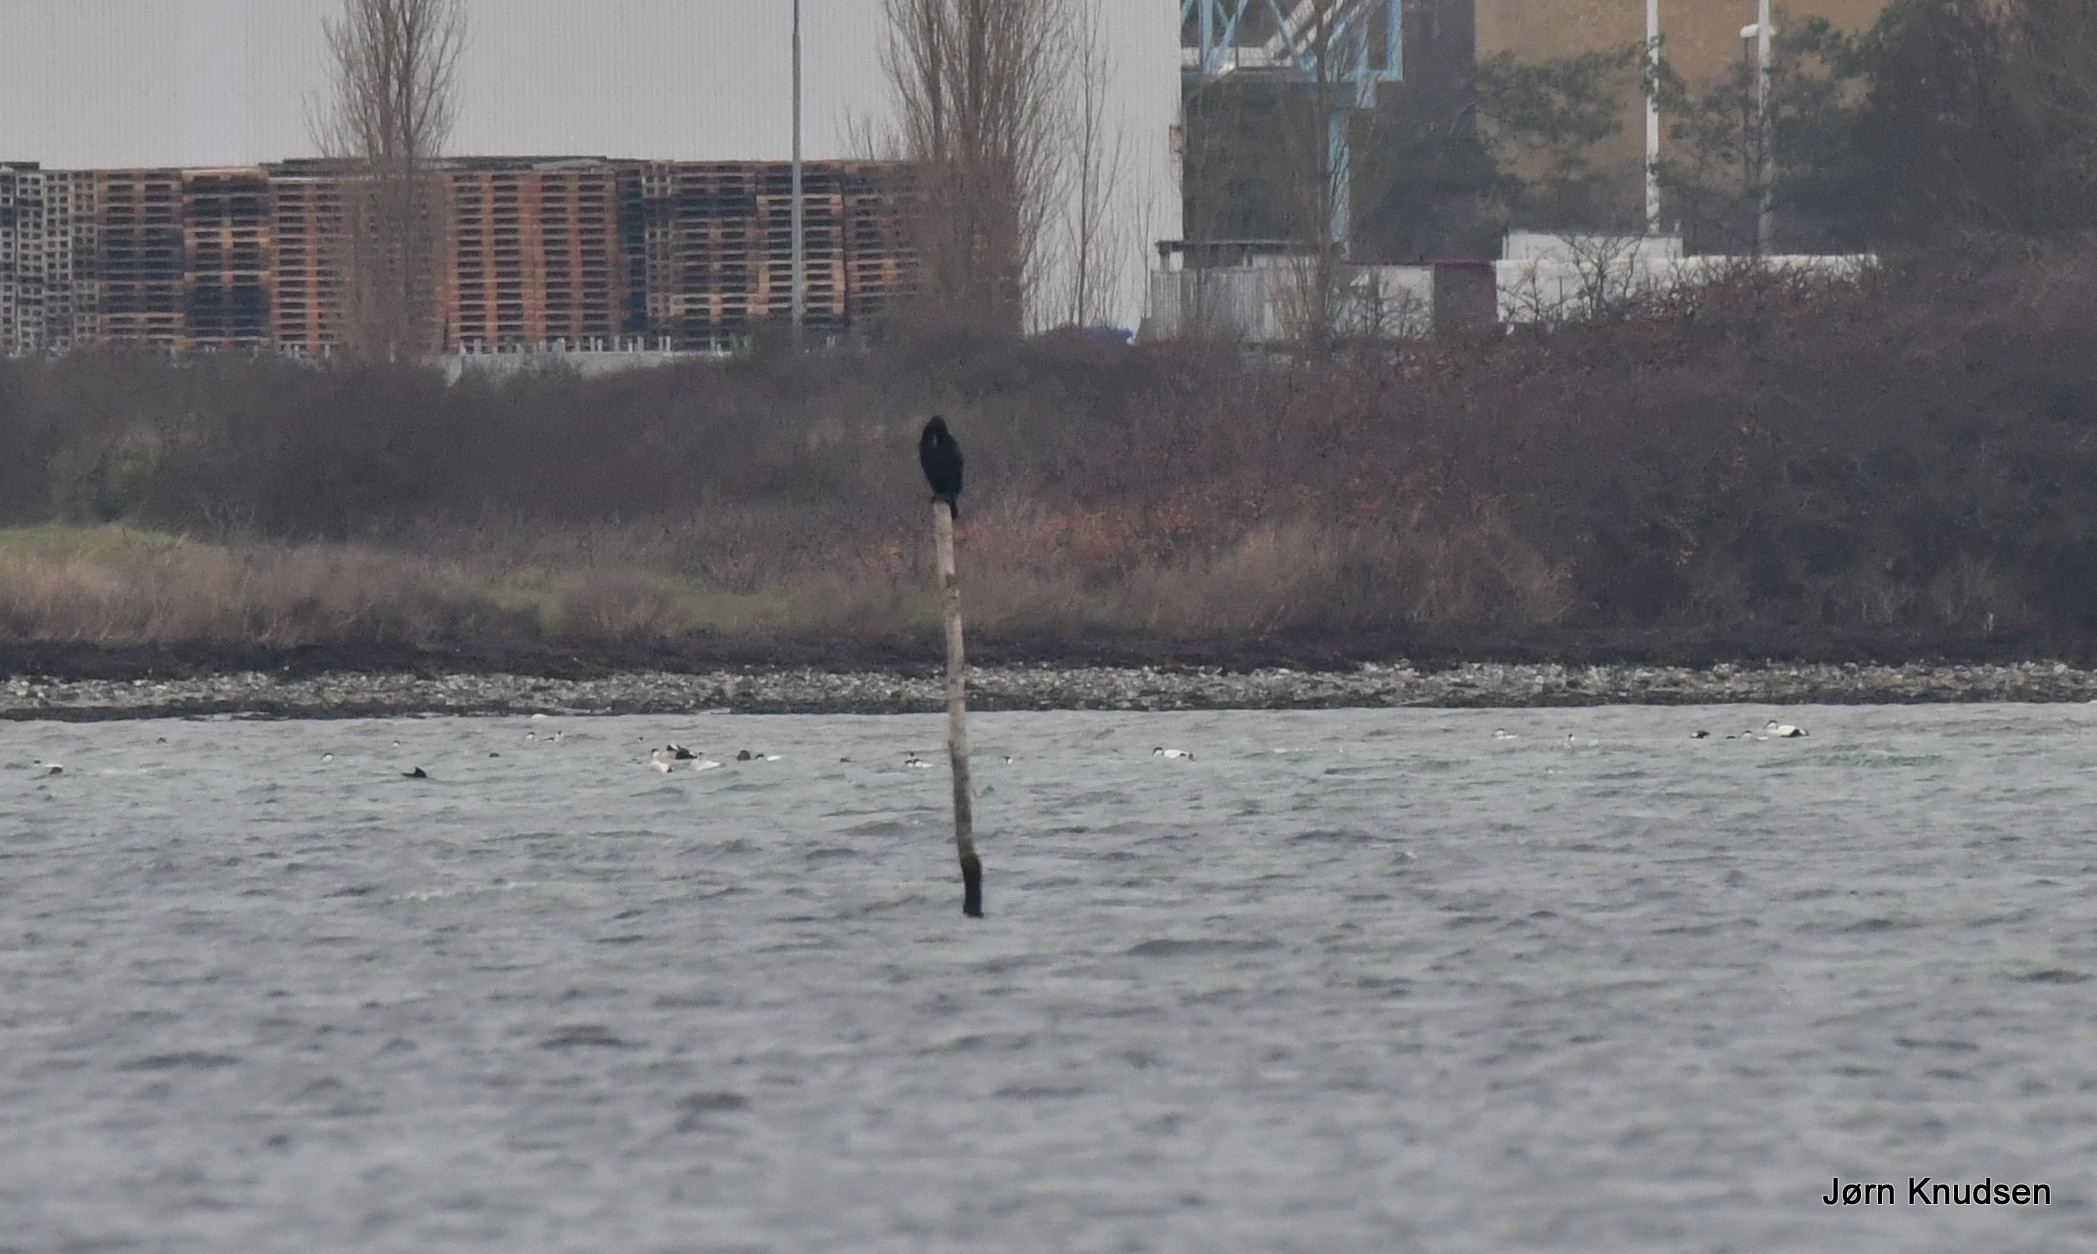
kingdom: Animalia
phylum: Chordata
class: Aves
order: Suliformes
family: Phalacrocoracidae
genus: Phalacrocorax
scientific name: Phalacrocorax carbo
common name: Skarv
